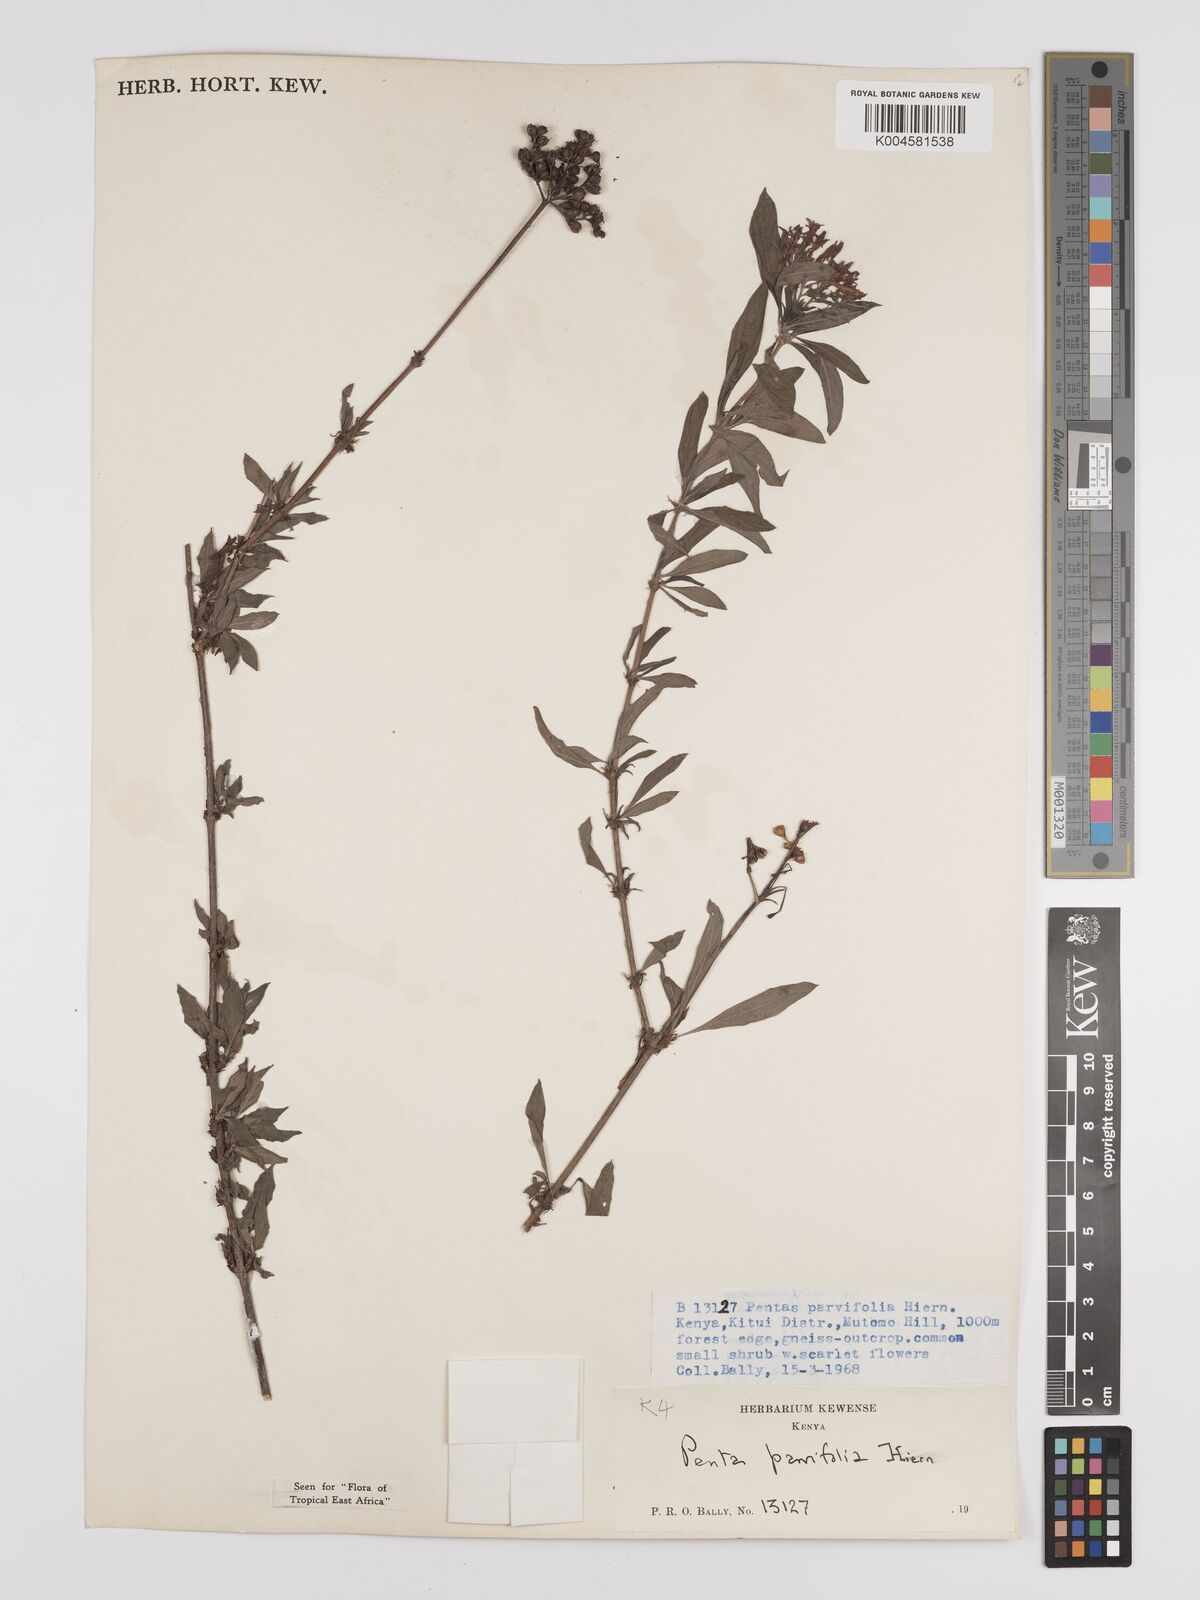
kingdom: Plantae
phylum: Tracheophyta
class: Magnoliopsida
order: Gentianales
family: Rubiaceae
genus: Rhodopentas
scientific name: Rhodopentas parvifolia
